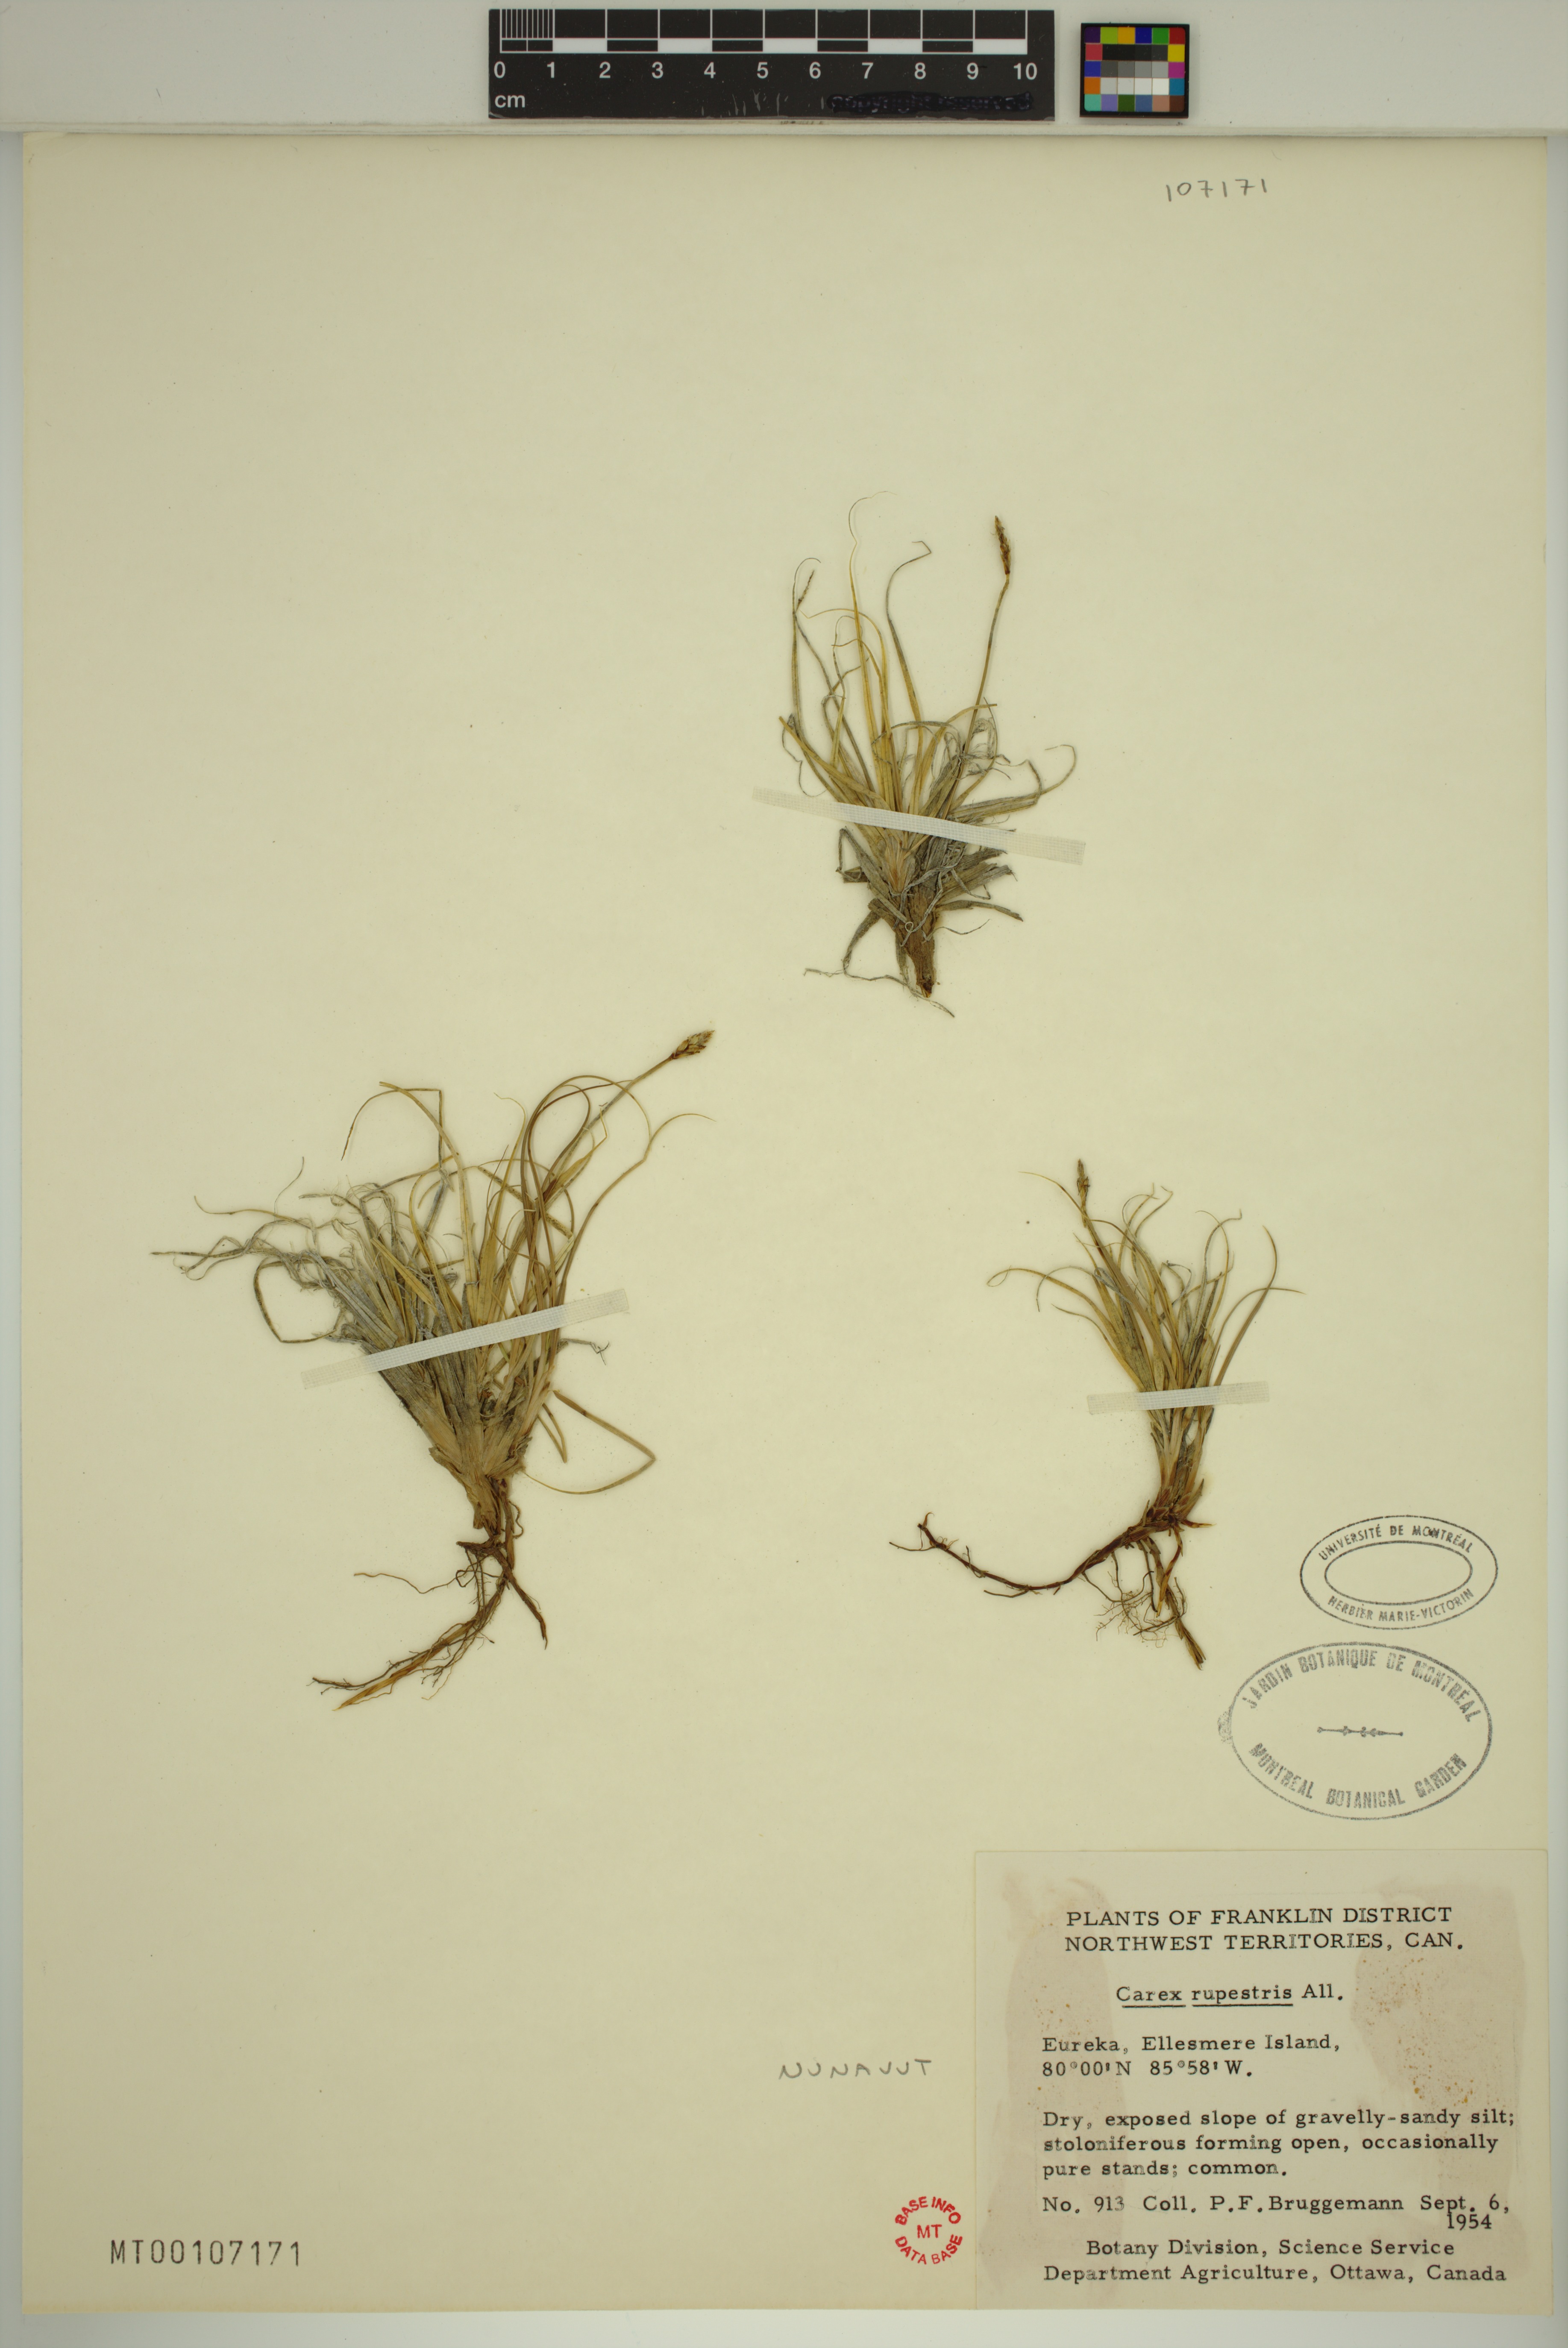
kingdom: Plantae
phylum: Tracheophyta
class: Liliopsida
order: Poales
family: Cyperaceae
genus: Carex
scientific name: Carex rupestris
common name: Rock sedge
